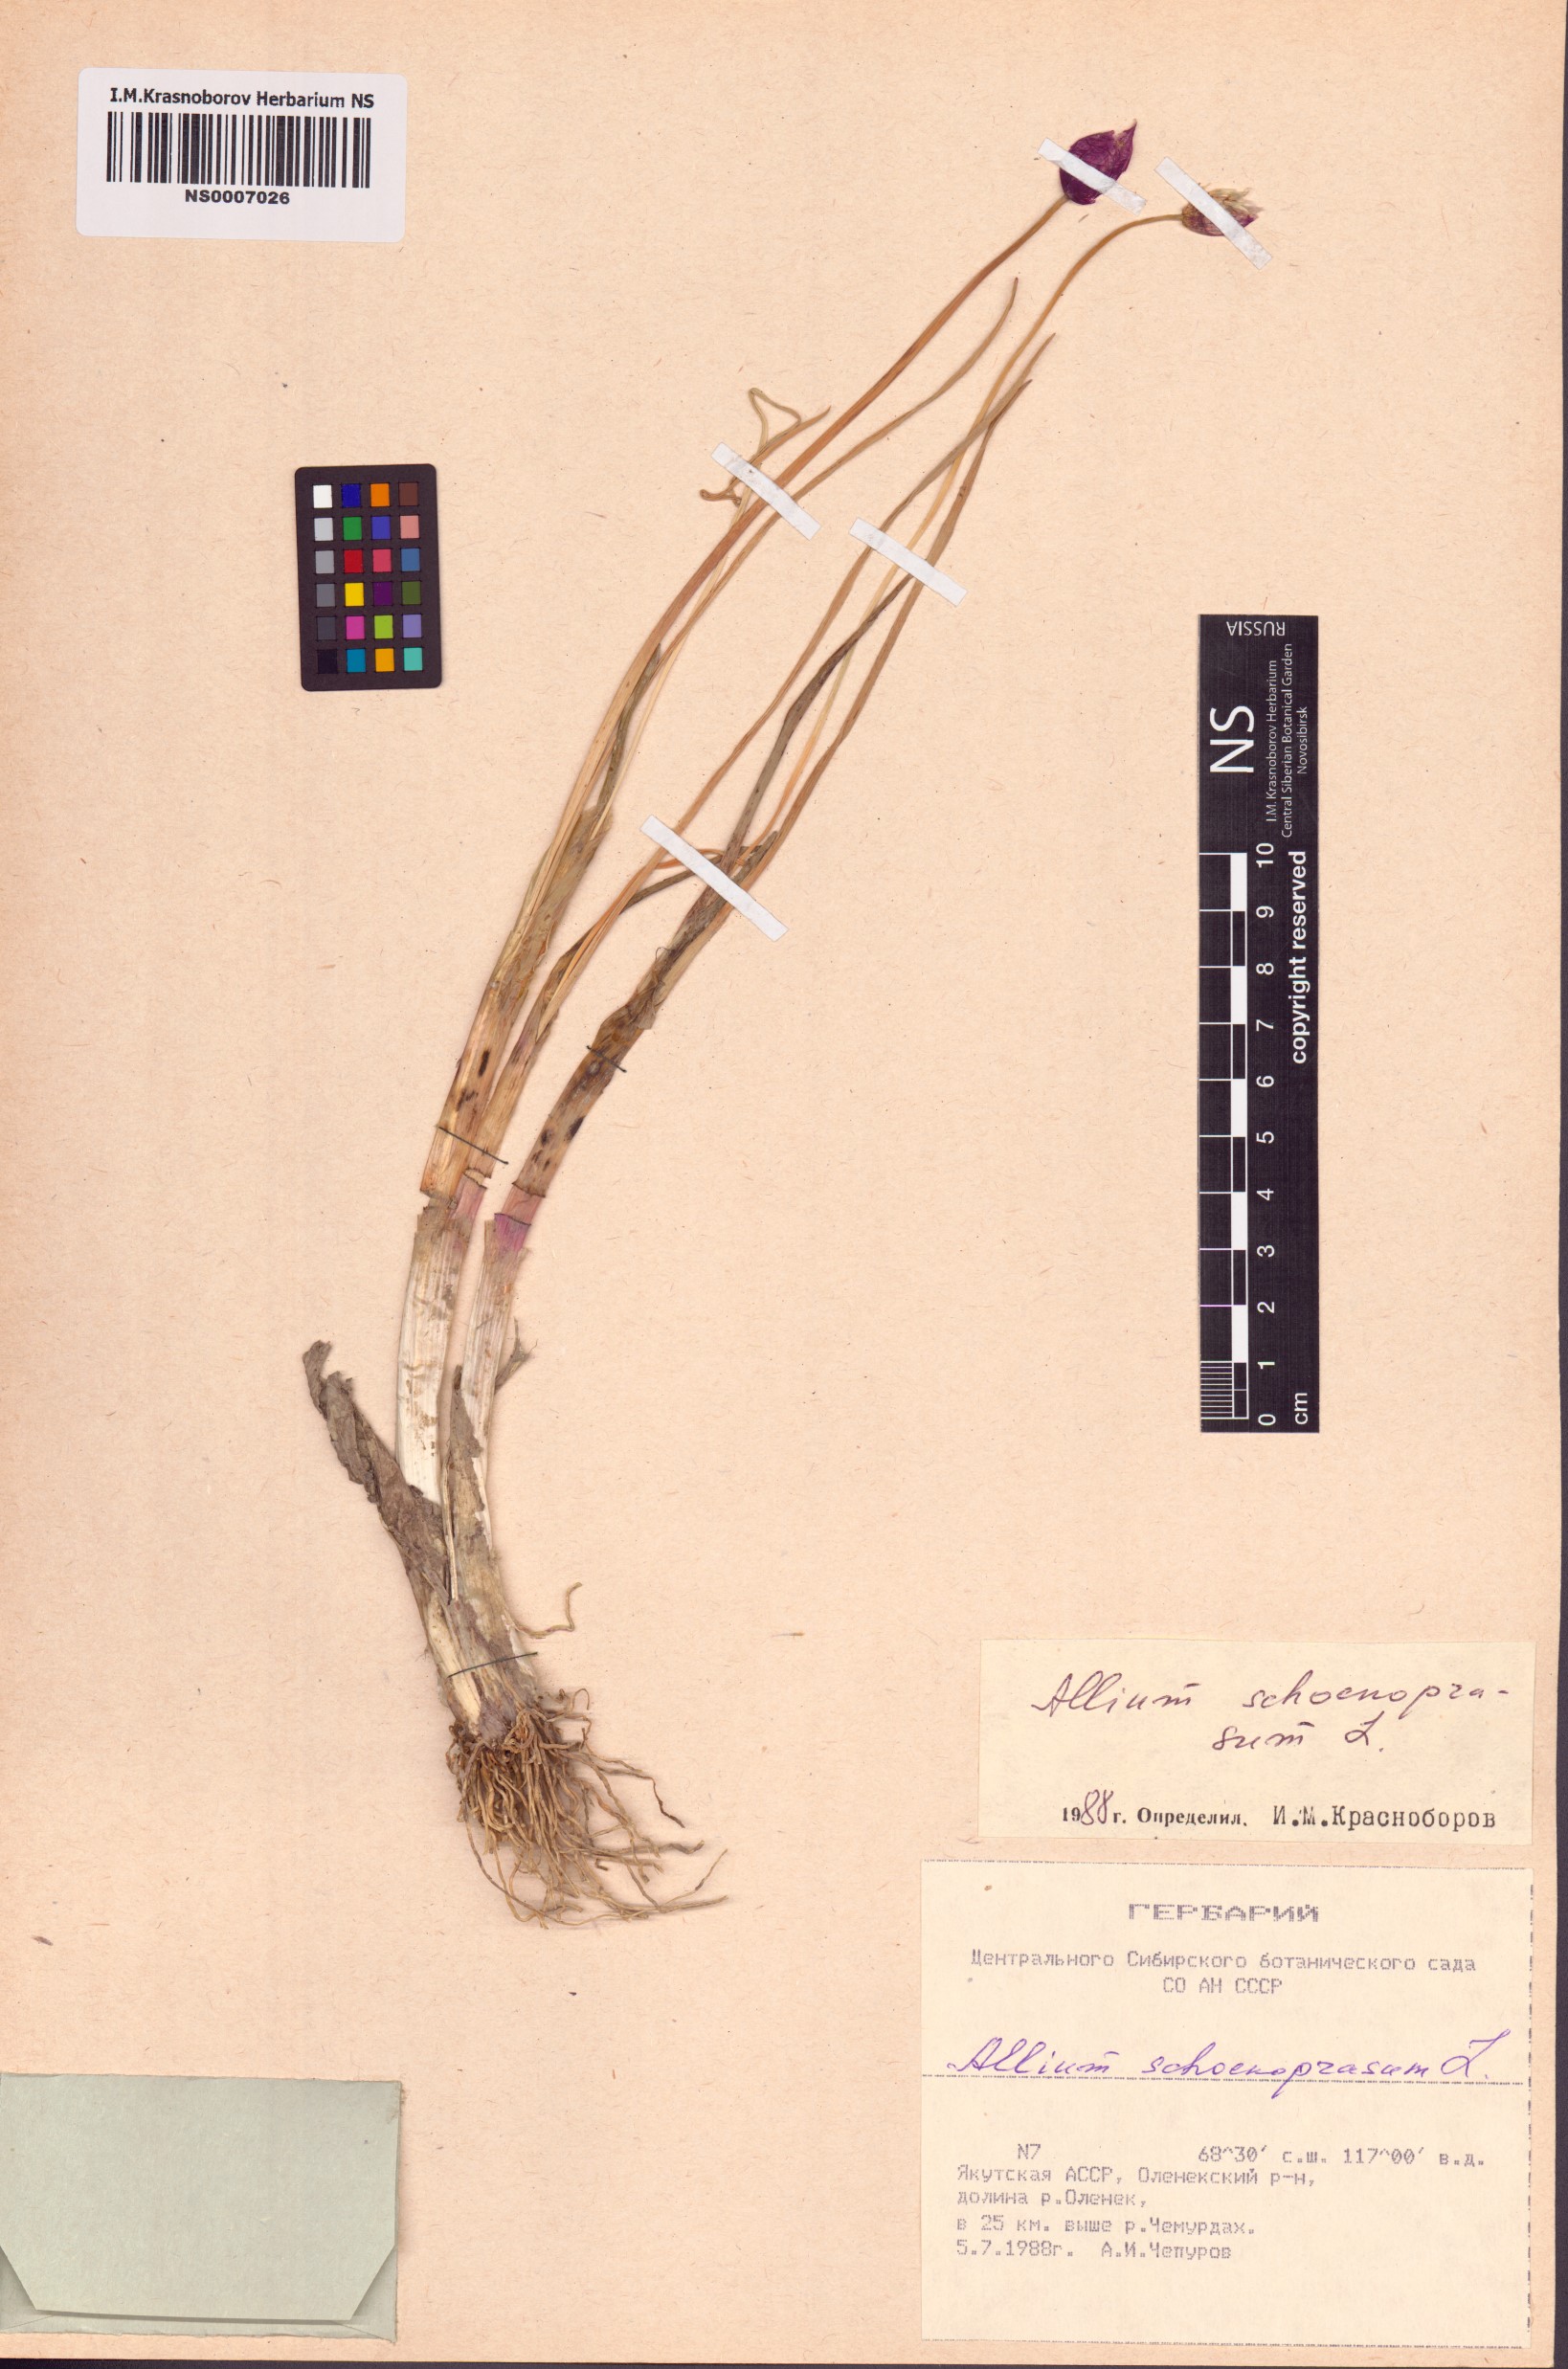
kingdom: Plantae
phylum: Tracheophyta
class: Liliopsida
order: Asparagales
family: Amaryllidaceae
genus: Allium
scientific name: Allium schoenoprasum
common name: Chives
